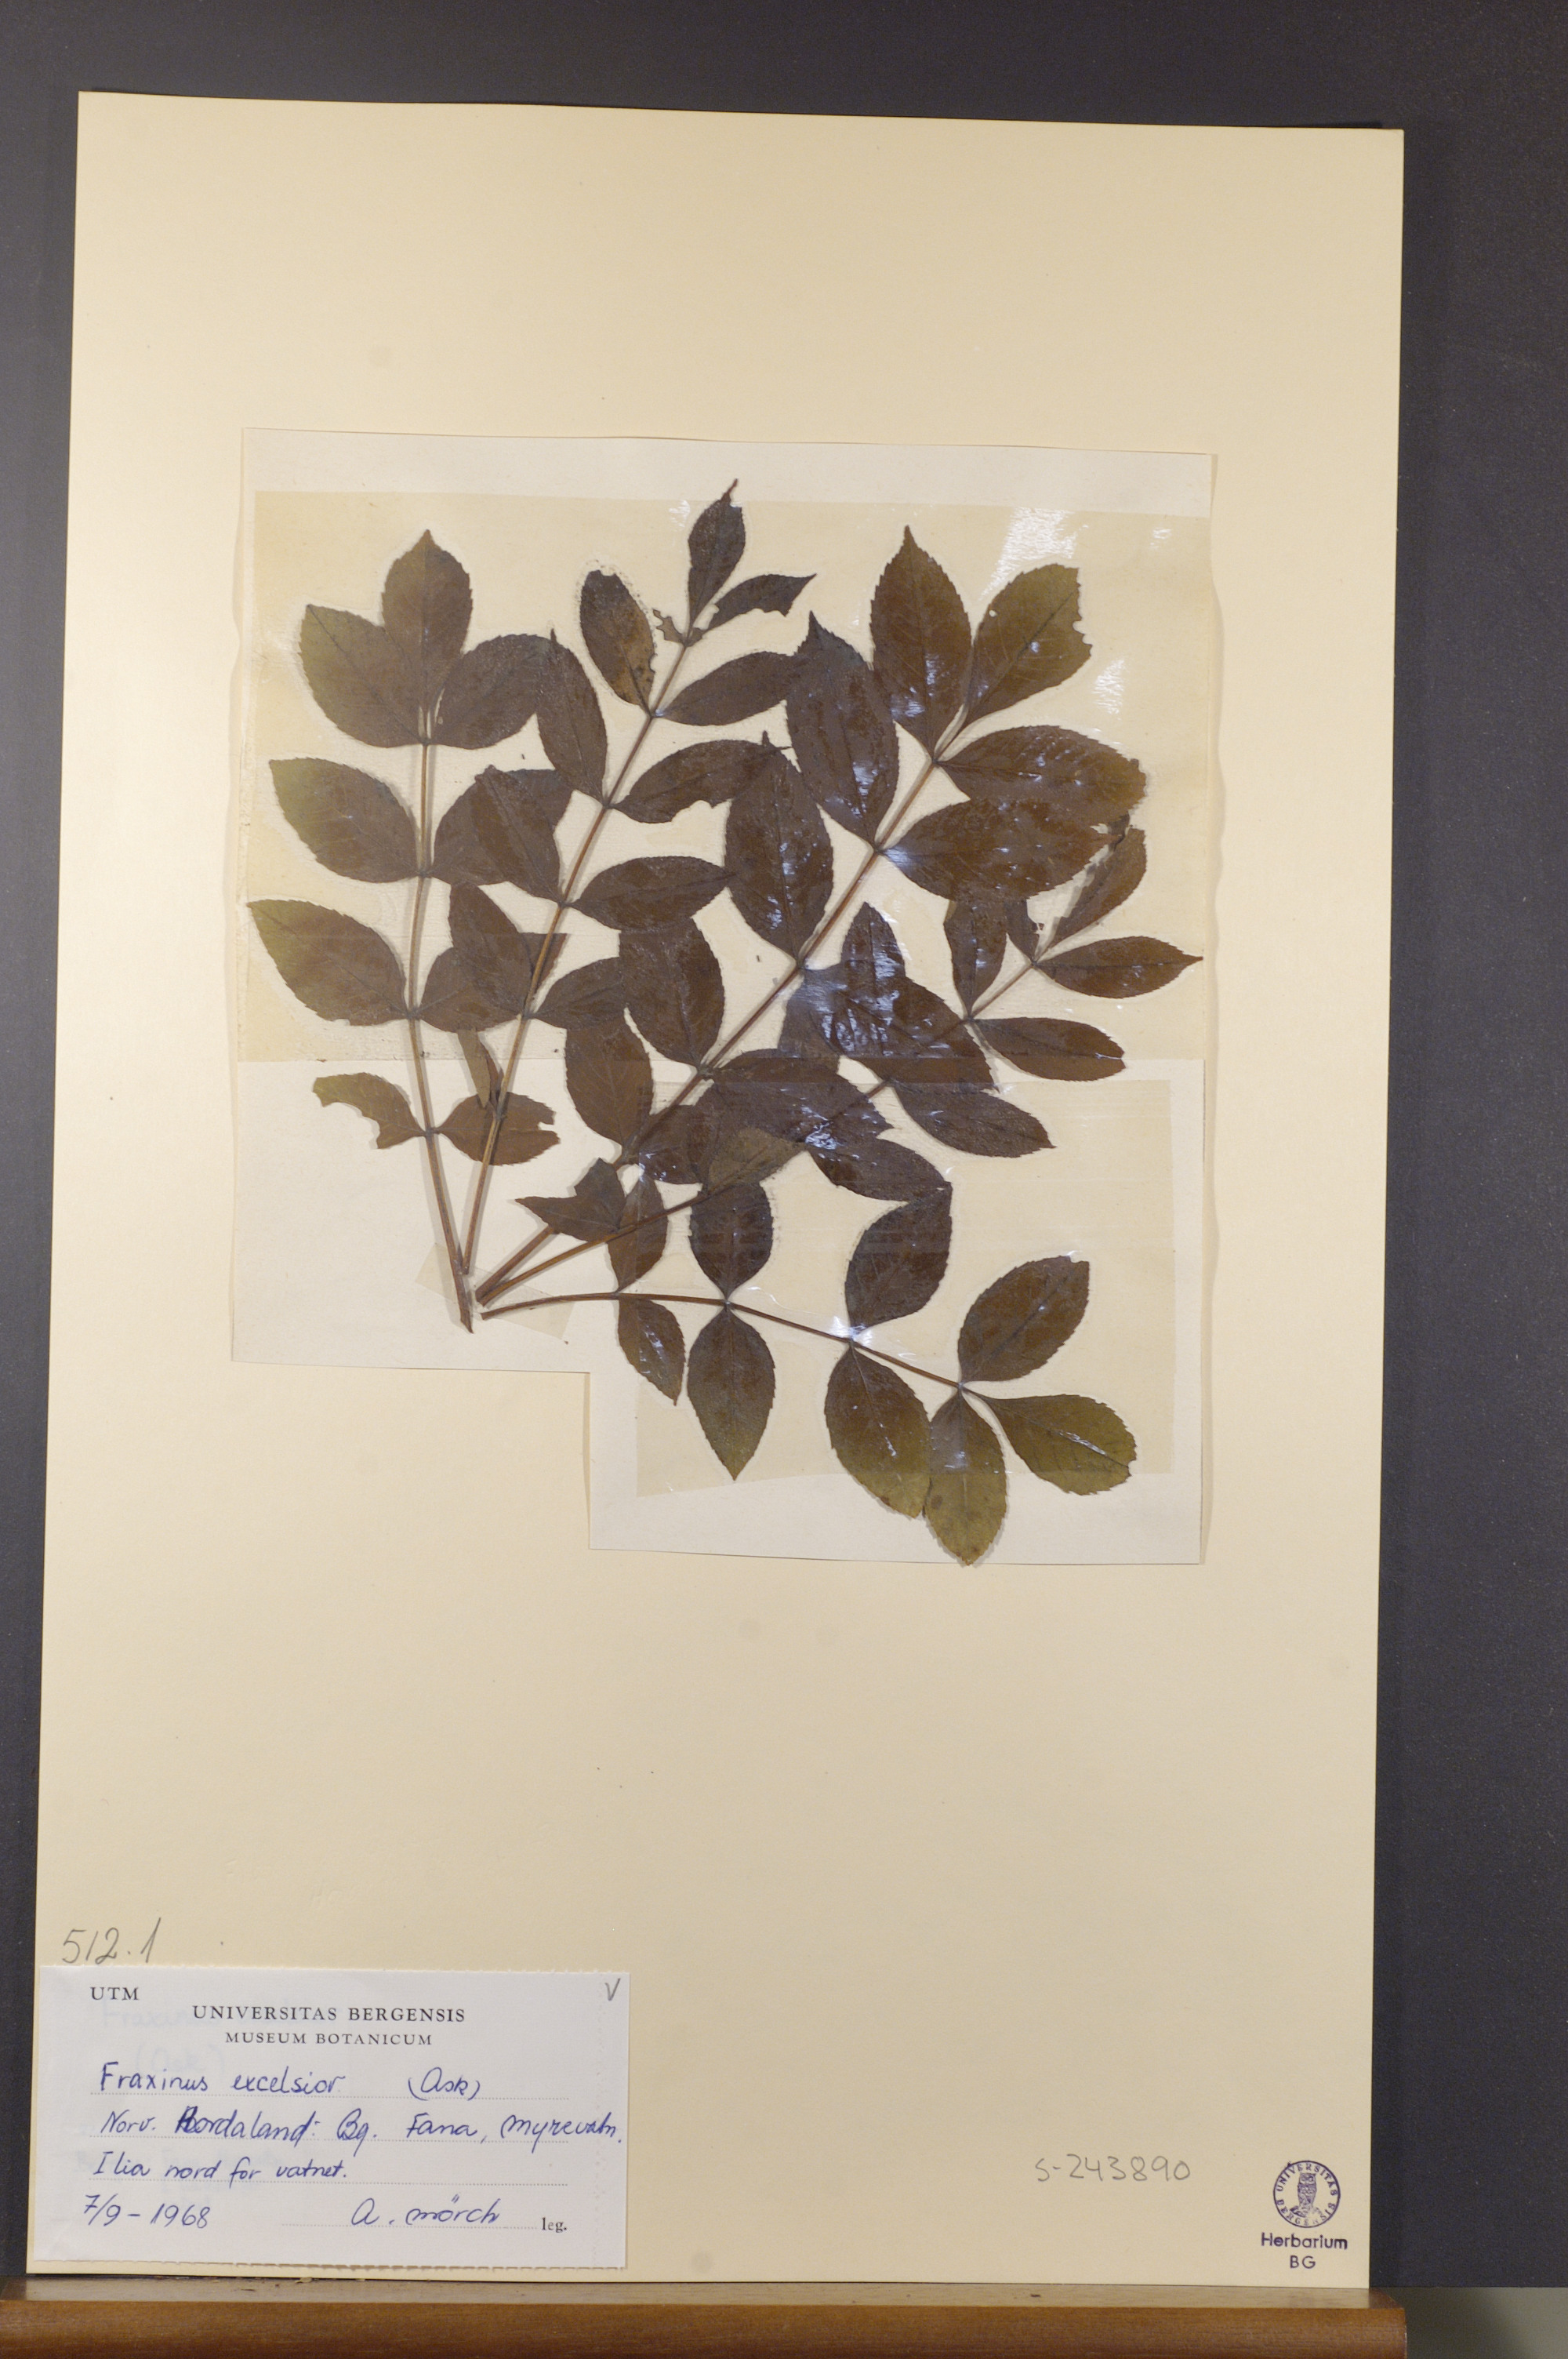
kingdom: Plantae
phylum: Tracheophyta
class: Magnoliopsida
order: Lamiales
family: Oleaceae
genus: Fraxinus
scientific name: Fraxinus excelsior
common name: European ash
